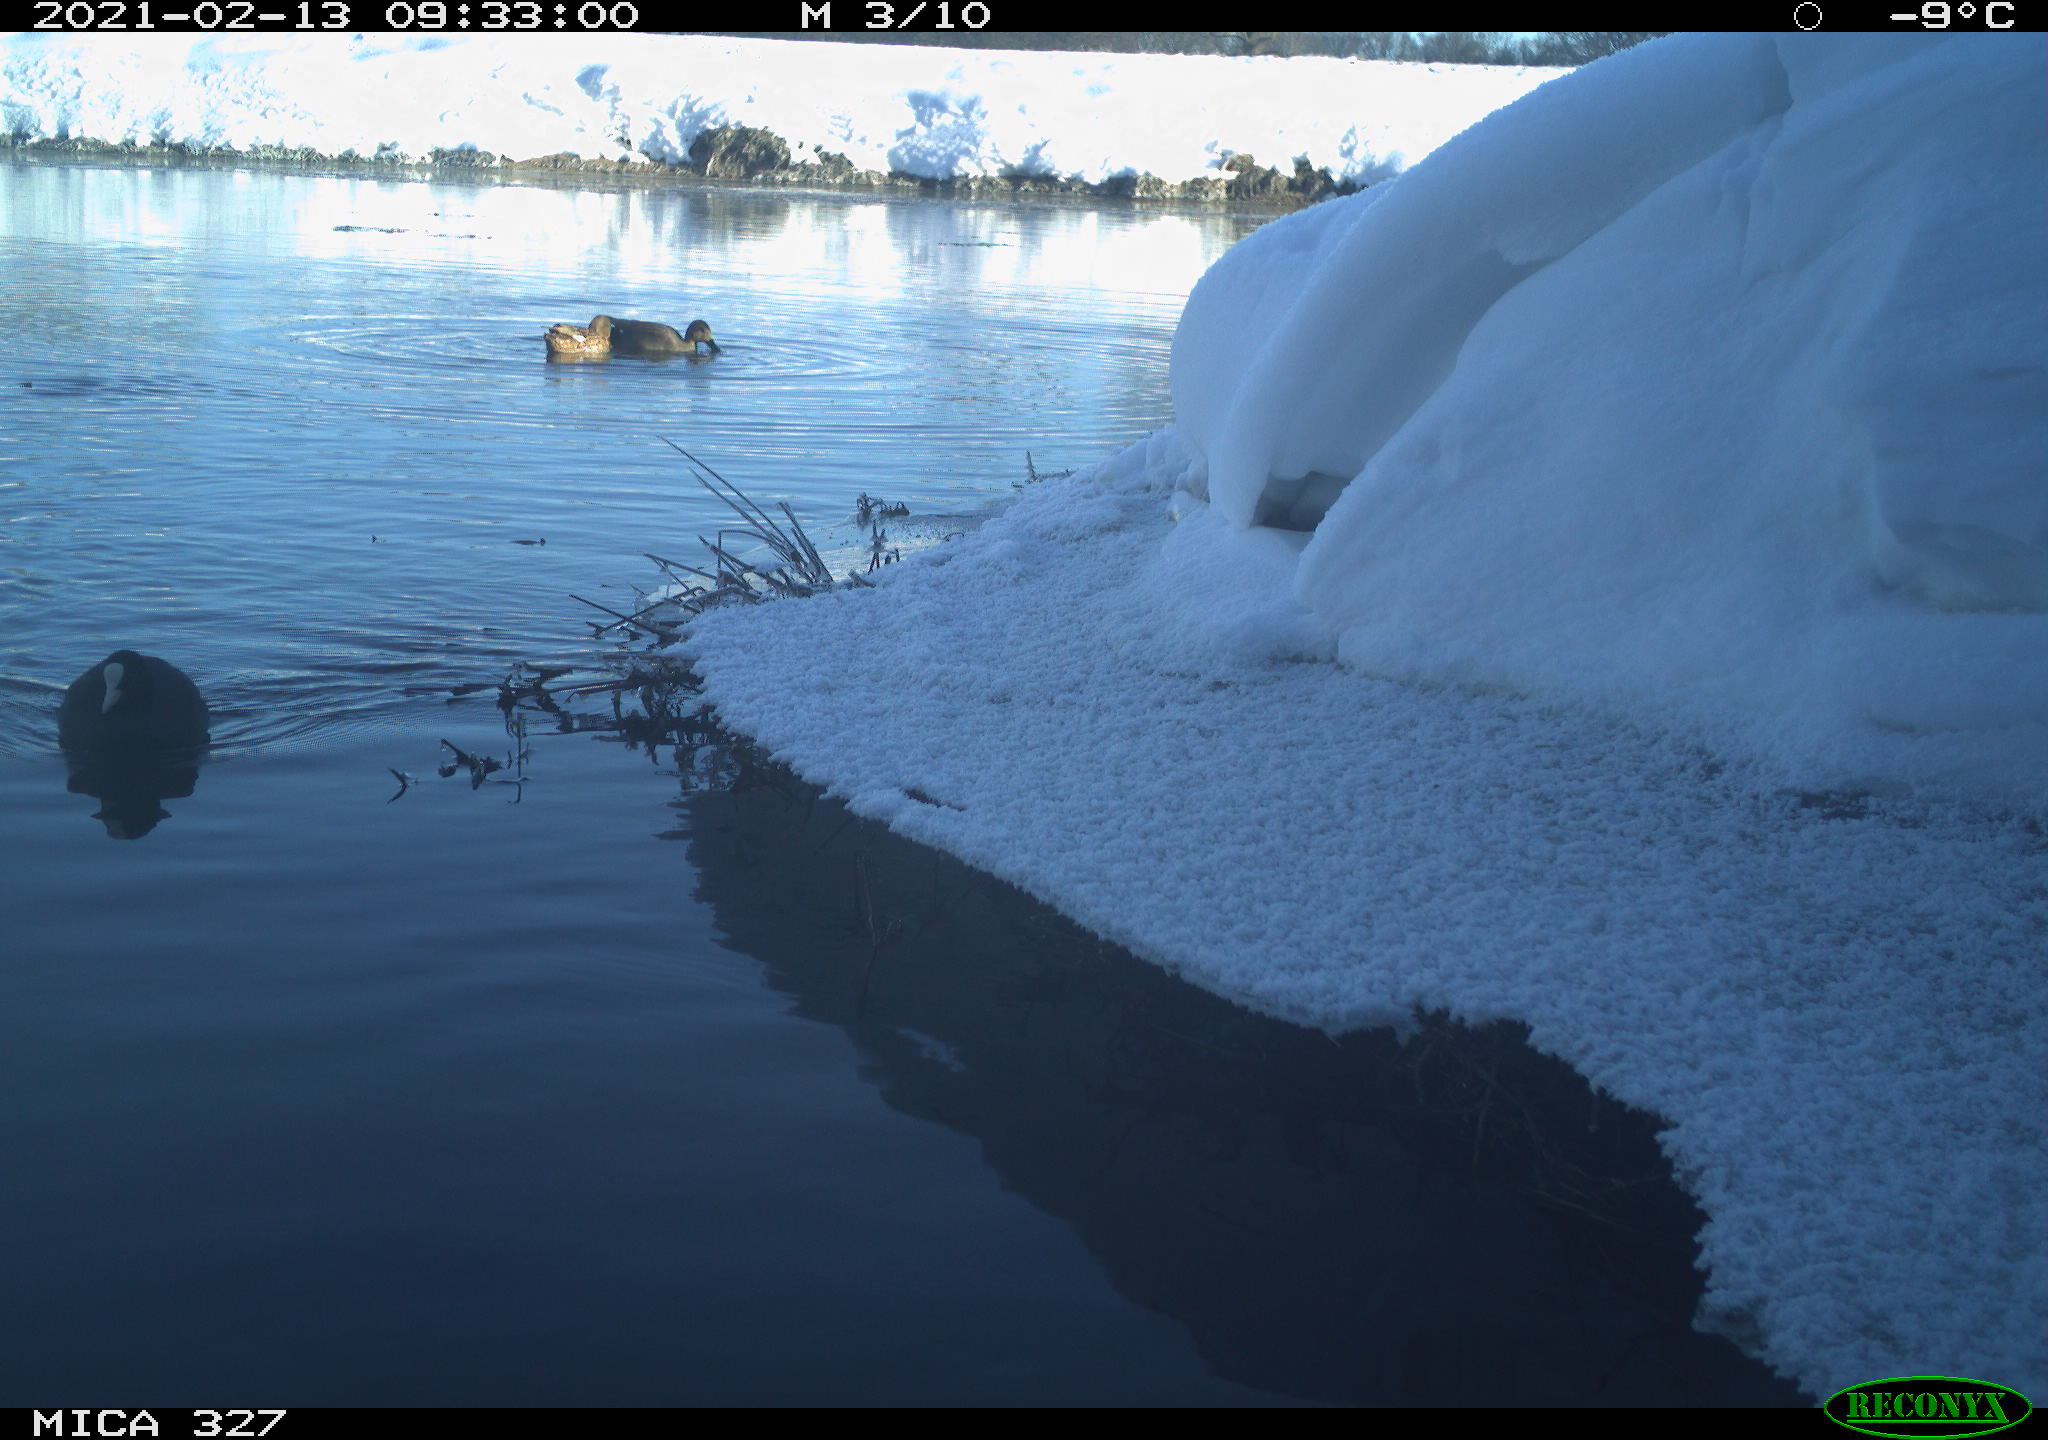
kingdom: Animalia
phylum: Chordata
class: Aves
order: Anseriformes
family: Anatidae
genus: Anas
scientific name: Anas
